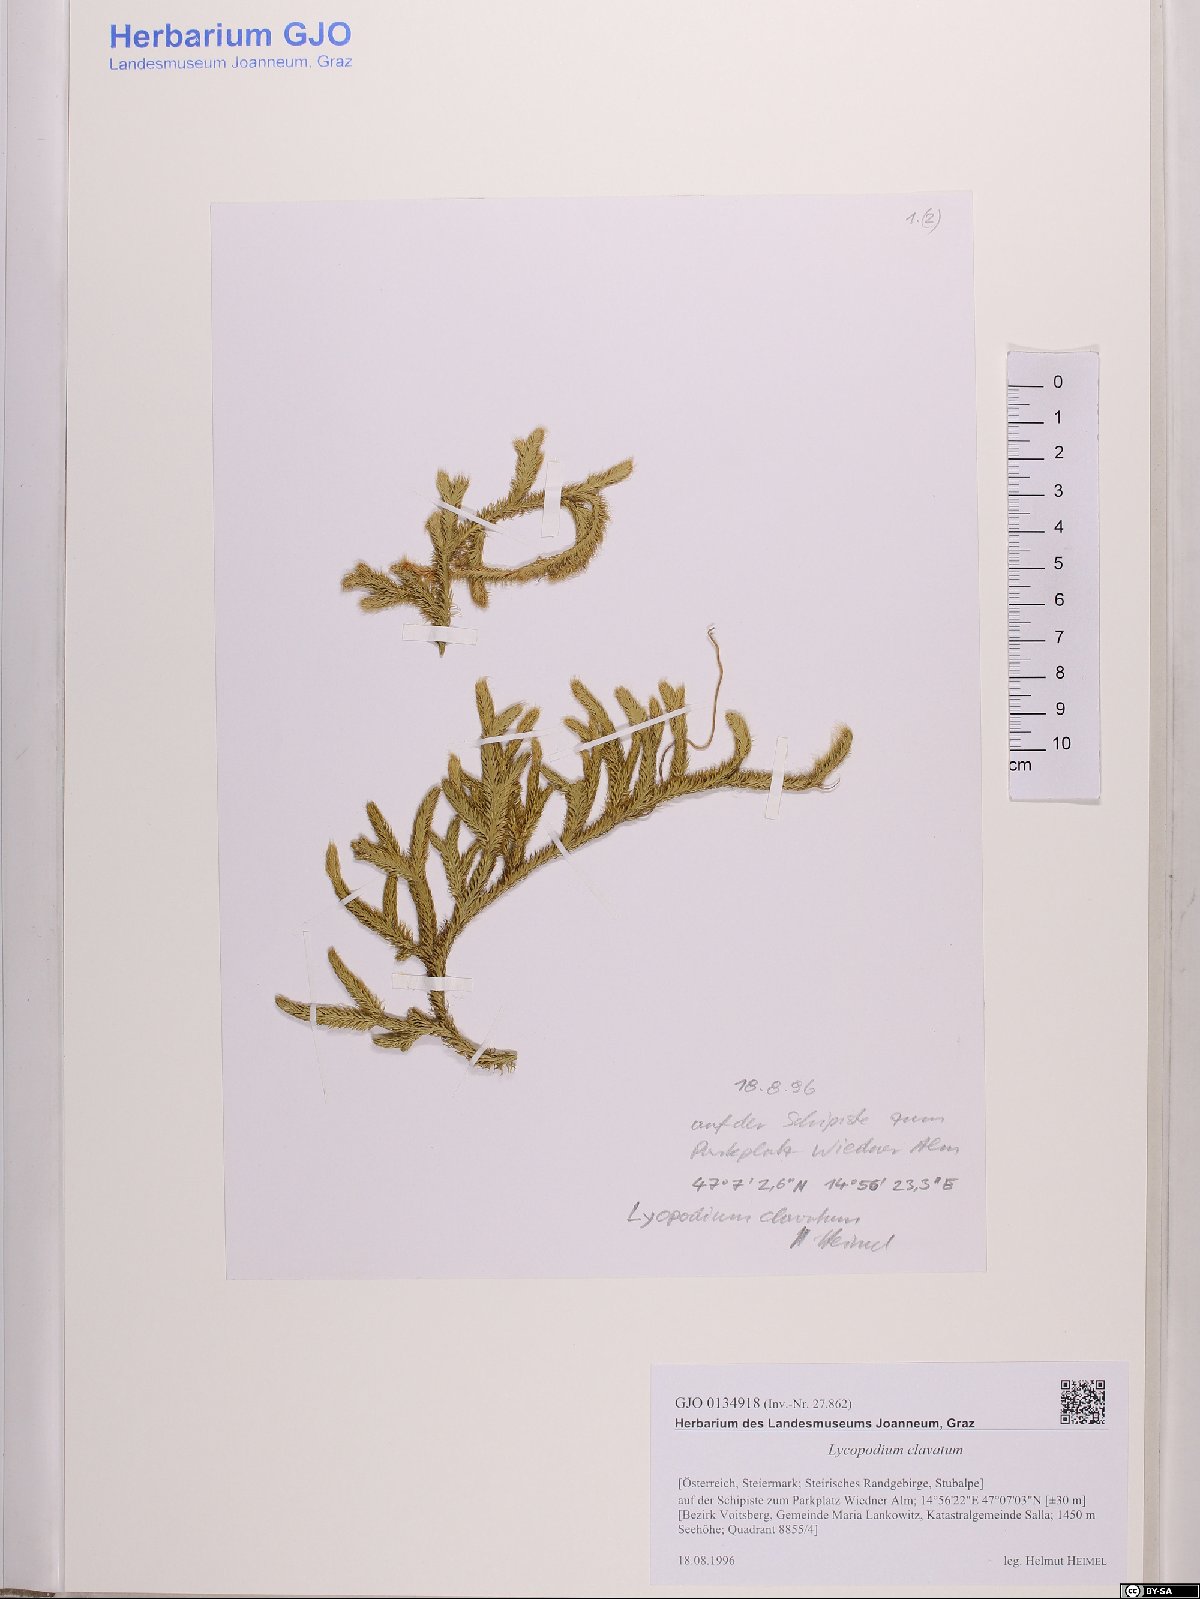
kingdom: Plantae
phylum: Tracheophyta
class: Lycopodiopsida
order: Lycopodiales
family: Lycopodiaceae
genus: Lycopodium
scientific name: Lycopodium clavatum
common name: Stag's-horn clubmoss
